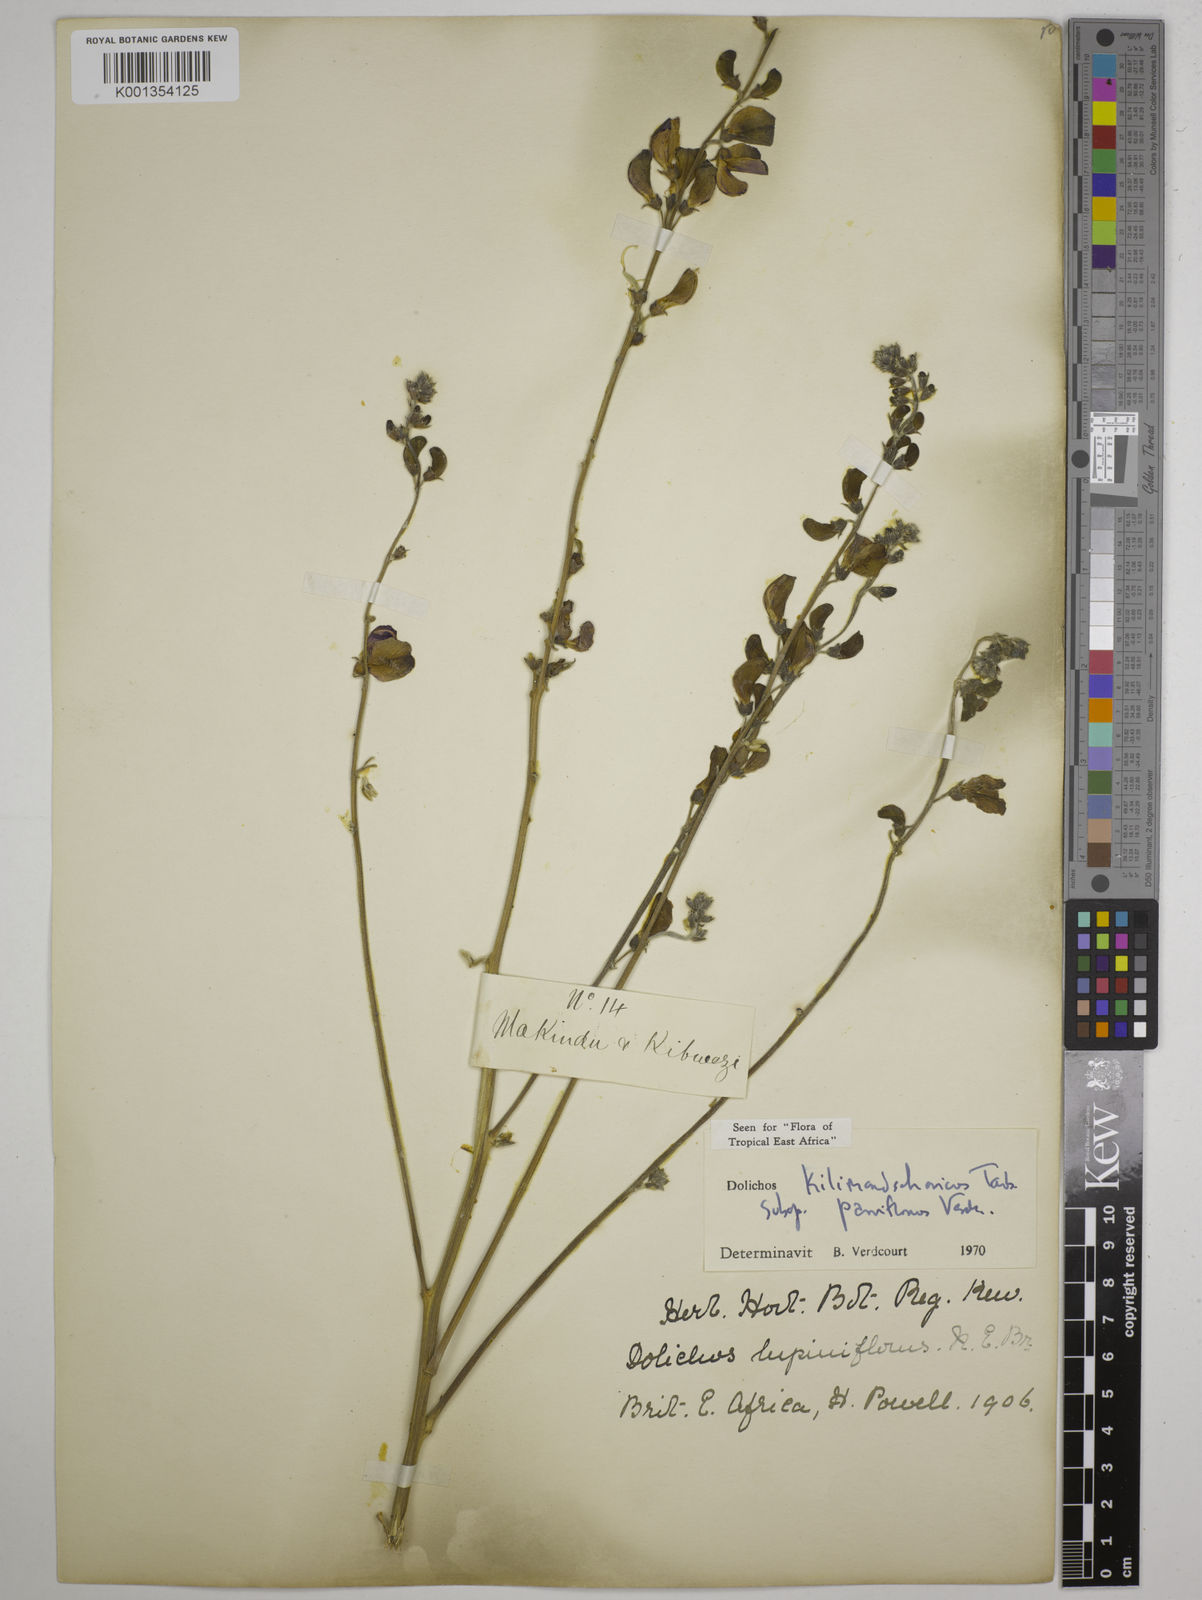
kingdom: Plantae
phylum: Tracheophyta
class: Magnoliopsida
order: Fabales
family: Fabaceae
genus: Dolichos
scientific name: Dolichos
